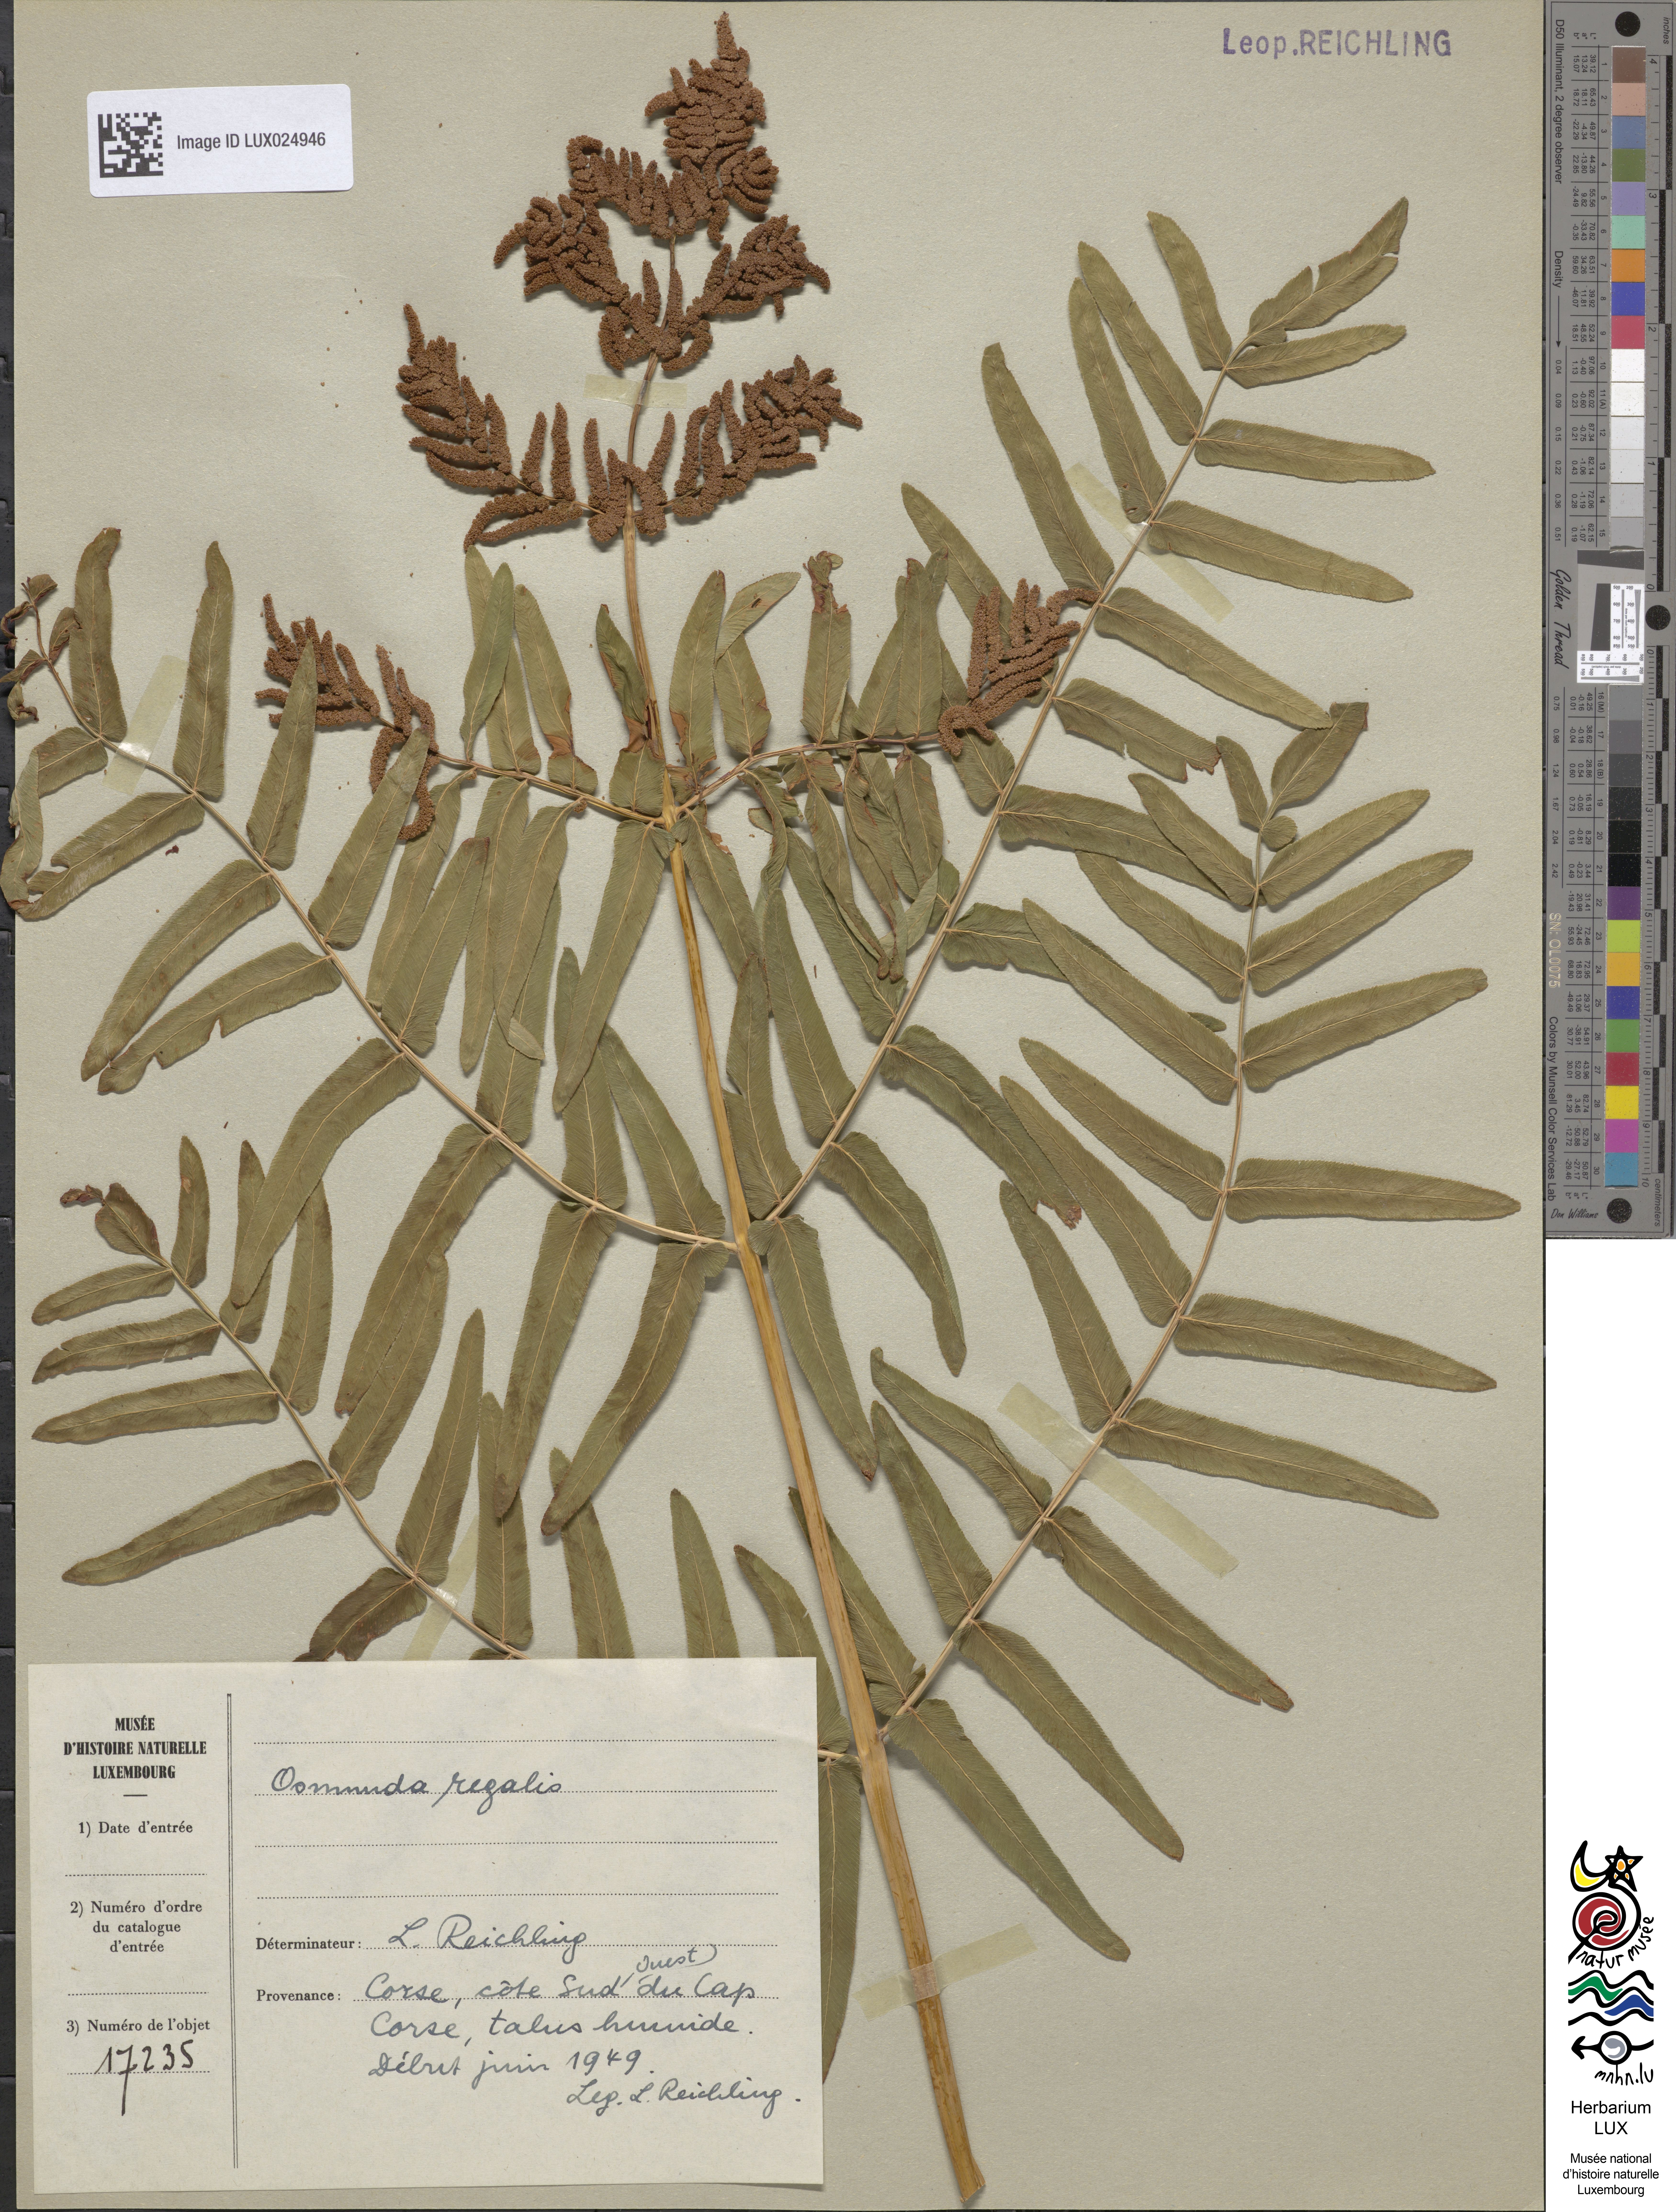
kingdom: Plantae
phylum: Tracheophyta
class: Polypodiopsida
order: Osmundales
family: Osmundaceae
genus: Osmunda
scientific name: Osmunda regalis
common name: Royal fern
